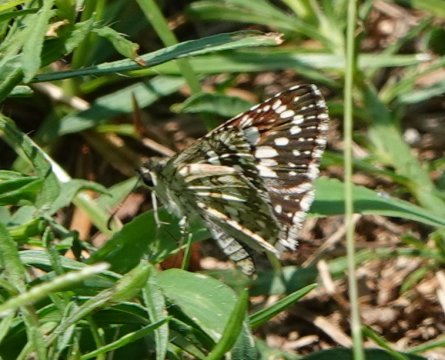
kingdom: Animalia
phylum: Arthropoda
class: Insecta
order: Lepidoptera
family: Hesperiidae
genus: Pyrgus
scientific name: Pyrgus communis
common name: White Checkered-Skipper
